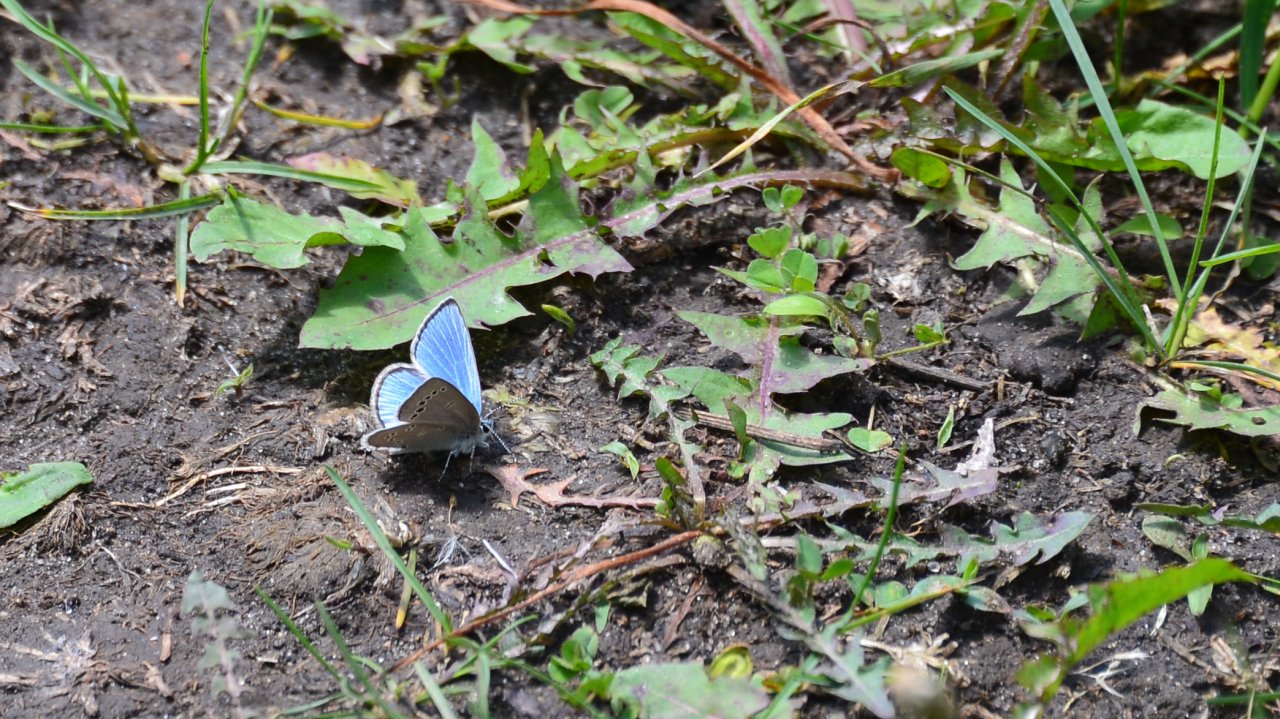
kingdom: Animalia
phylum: Arthropoda
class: Insecta
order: Lepidoptera
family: Lycaenidae
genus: Glaucopsyche
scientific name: Glaucopsyche lygdamus
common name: Silvery Blue
